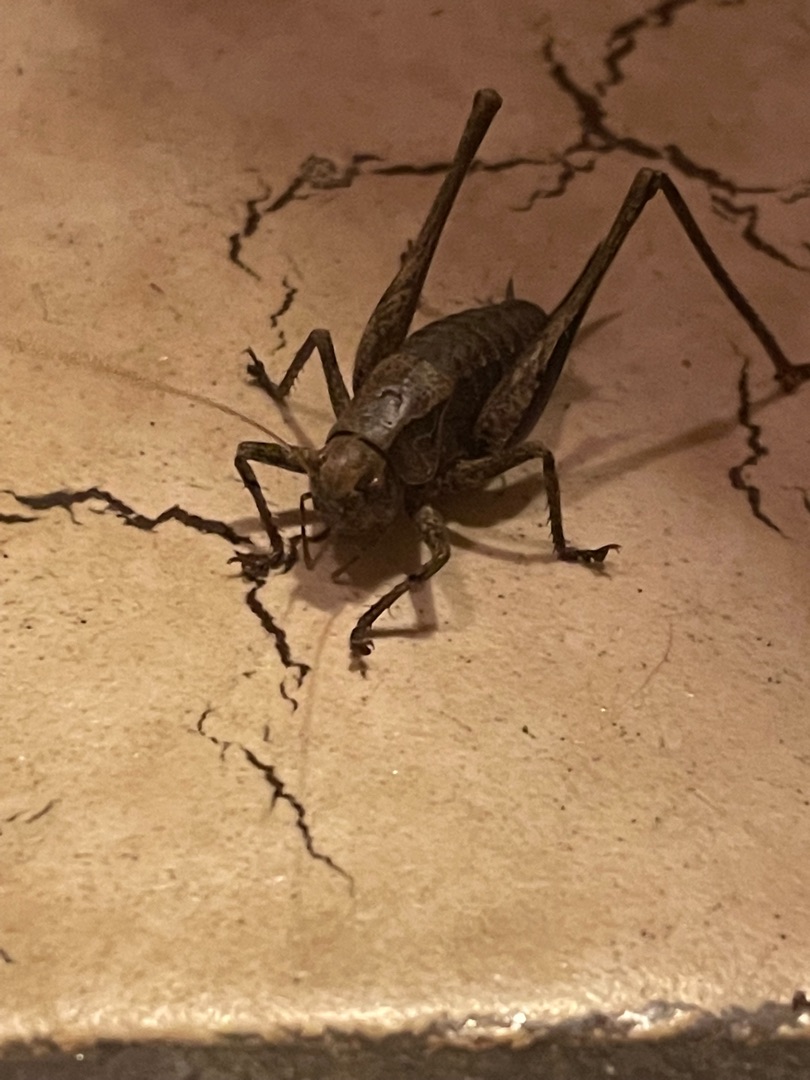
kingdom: Animalia
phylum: Arthropoda
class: Insecta
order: Orthoptera
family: Tettigoniidae
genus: Pholidoptera
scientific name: Pholidoptera griseoaptera
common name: Buskgræshoppe
